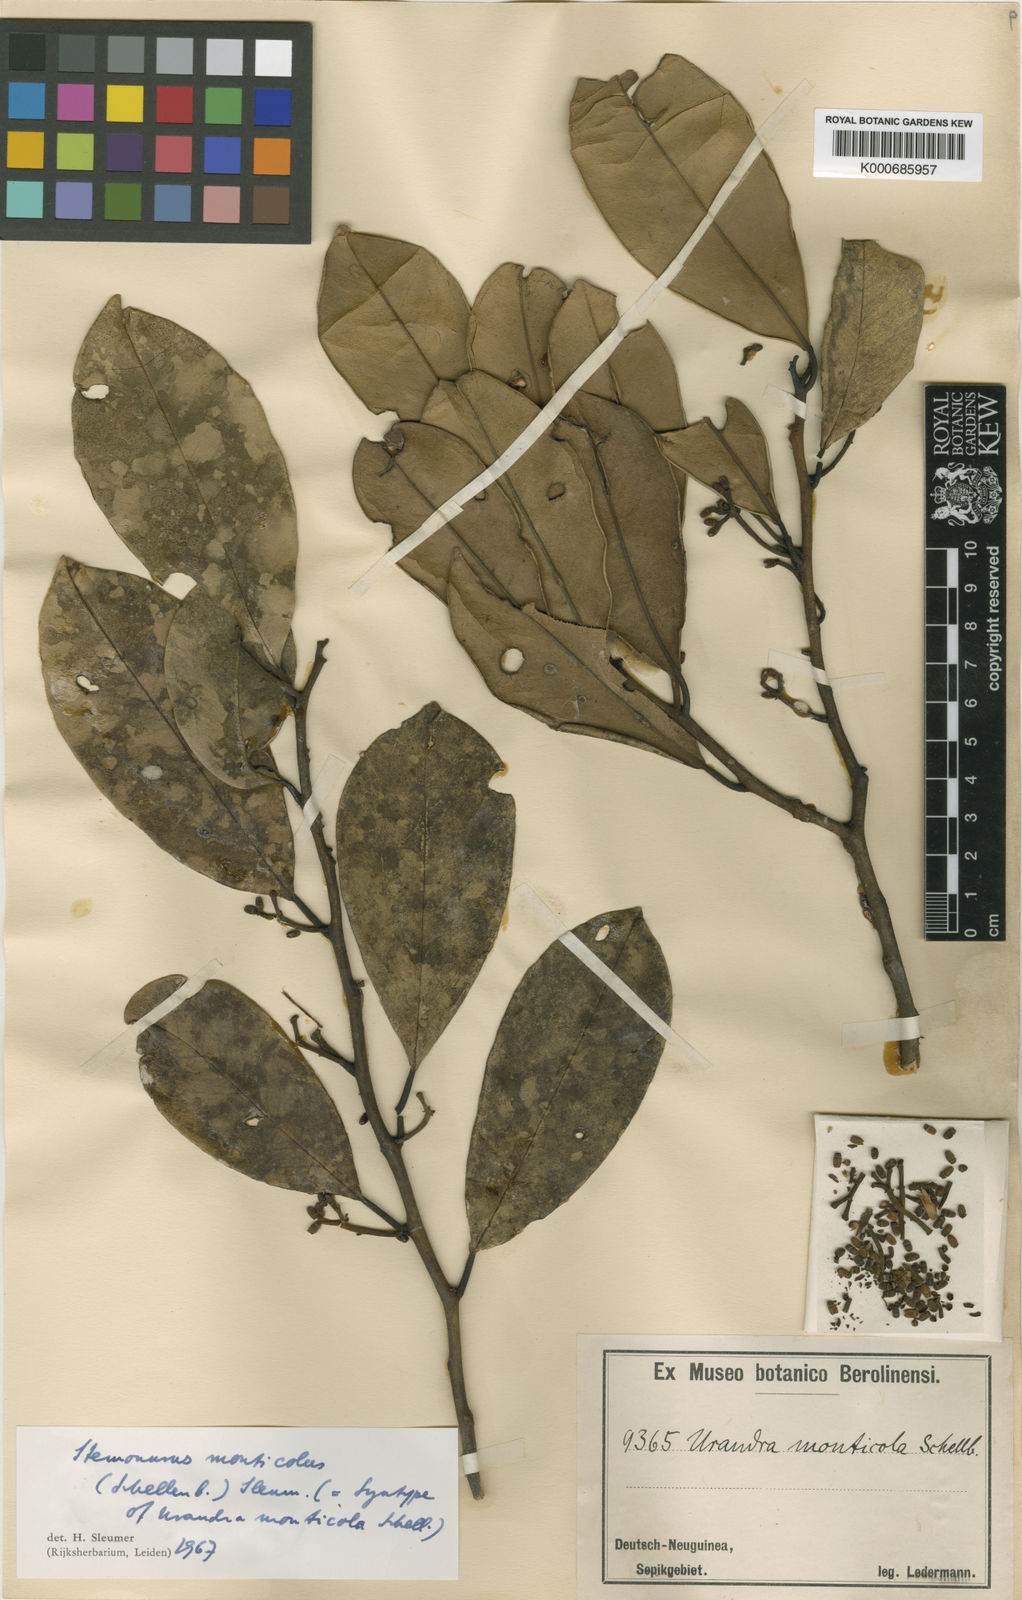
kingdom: Plantae
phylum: Tracheophyta
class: Magnoliopsida
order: Cardiopteridales
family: Stemonuraceae
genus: Stemonurus
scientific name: Stemonurus monticola
